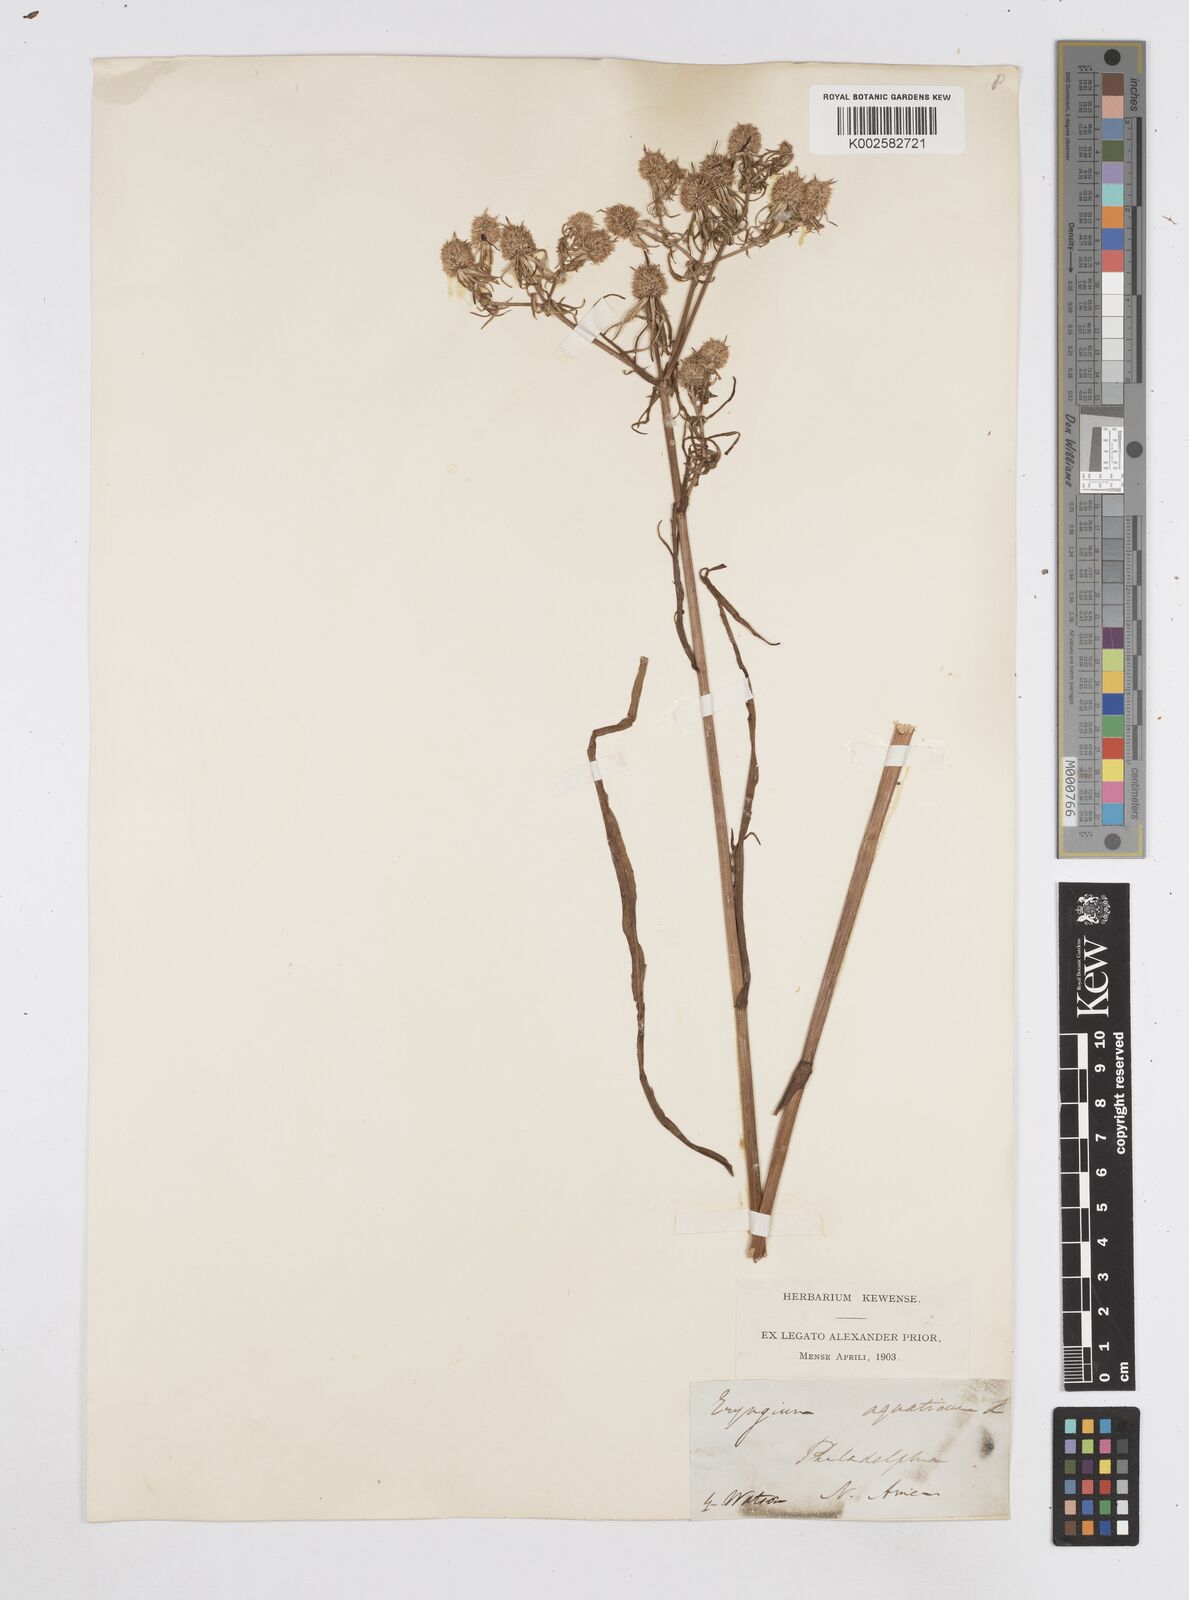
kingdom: Plantae
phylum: Tracheophyta
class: Magnoliopsida
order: Apiales
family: Apiaceae
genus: Eryngium
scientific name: Eryngium aquaticum
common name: Water eryngo
